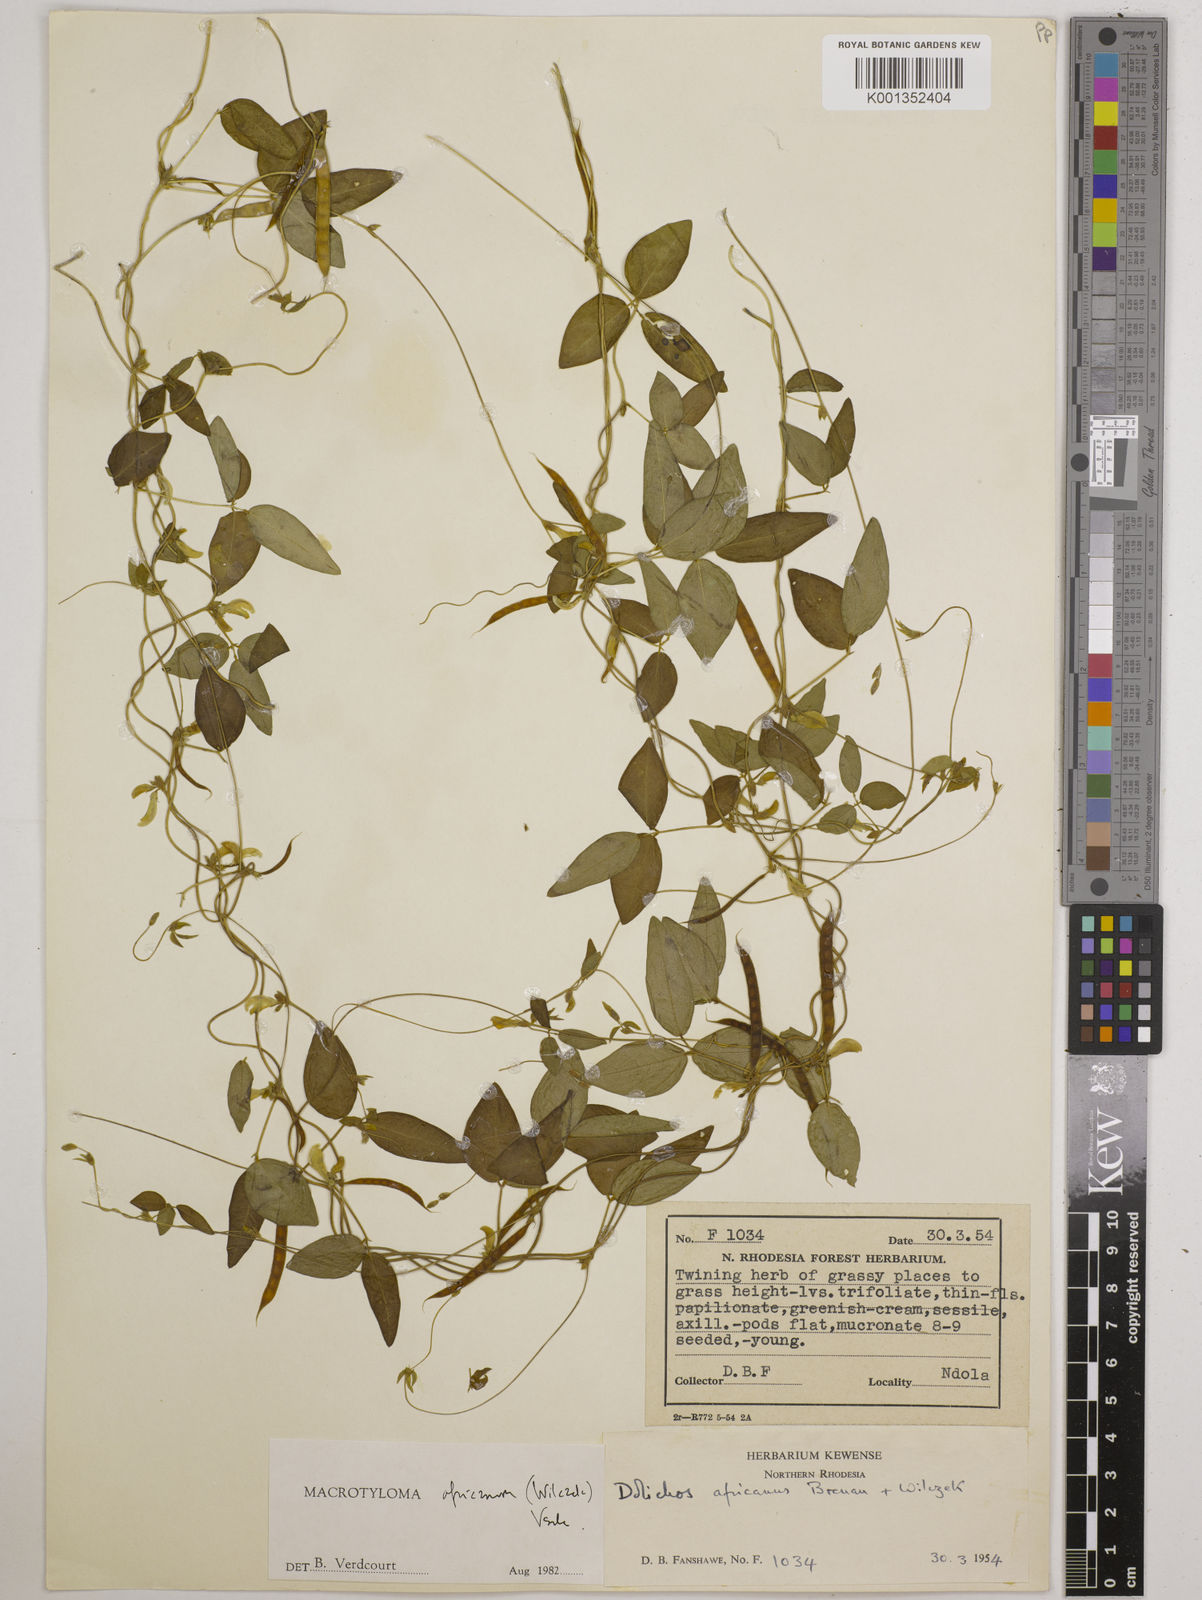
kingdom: Plantae
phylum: Tracheophyta
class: Magnoliopsida
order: Fabales
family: Fabaceae
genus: Macrotyloma
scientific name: Macrotyloma africanum
